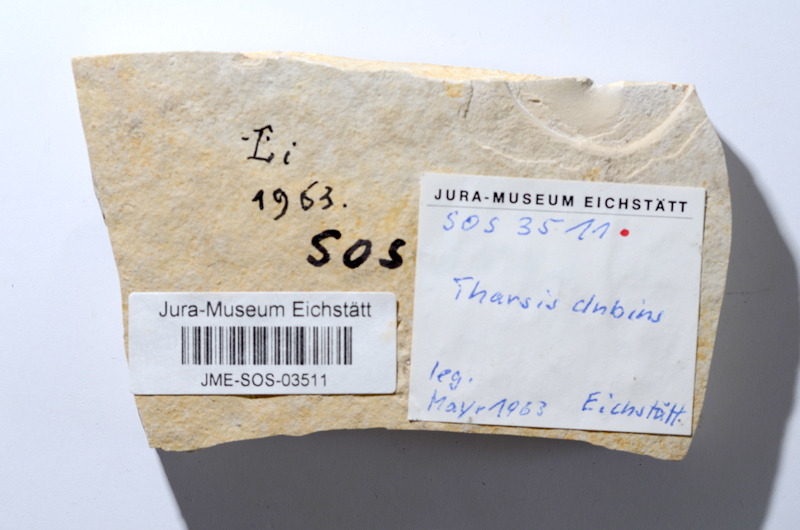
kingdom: Animalia
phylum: Chordata
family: Ascalaboidae
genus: Tharsis
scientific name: Tharsis dubius
